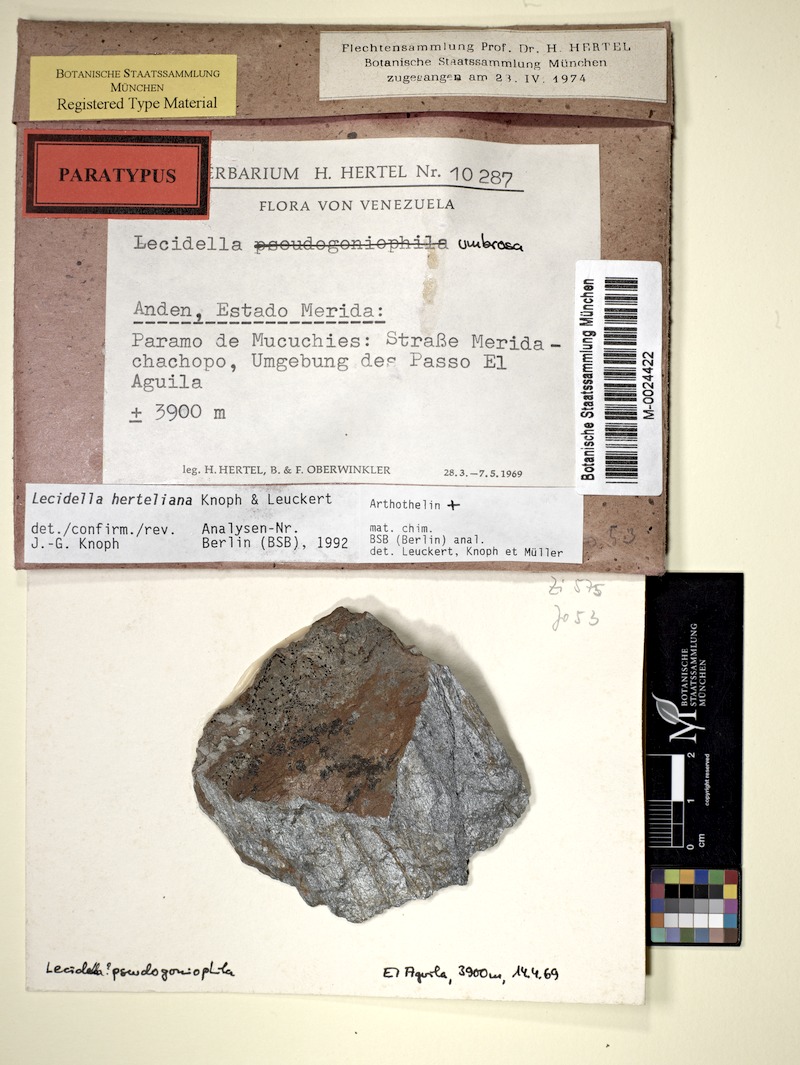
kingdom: Fungi
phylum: Ascomycota
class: Lecanoromycetes
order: Lecanorales
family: Lecanoraceae
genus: Lecidella
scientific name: Lecidella
